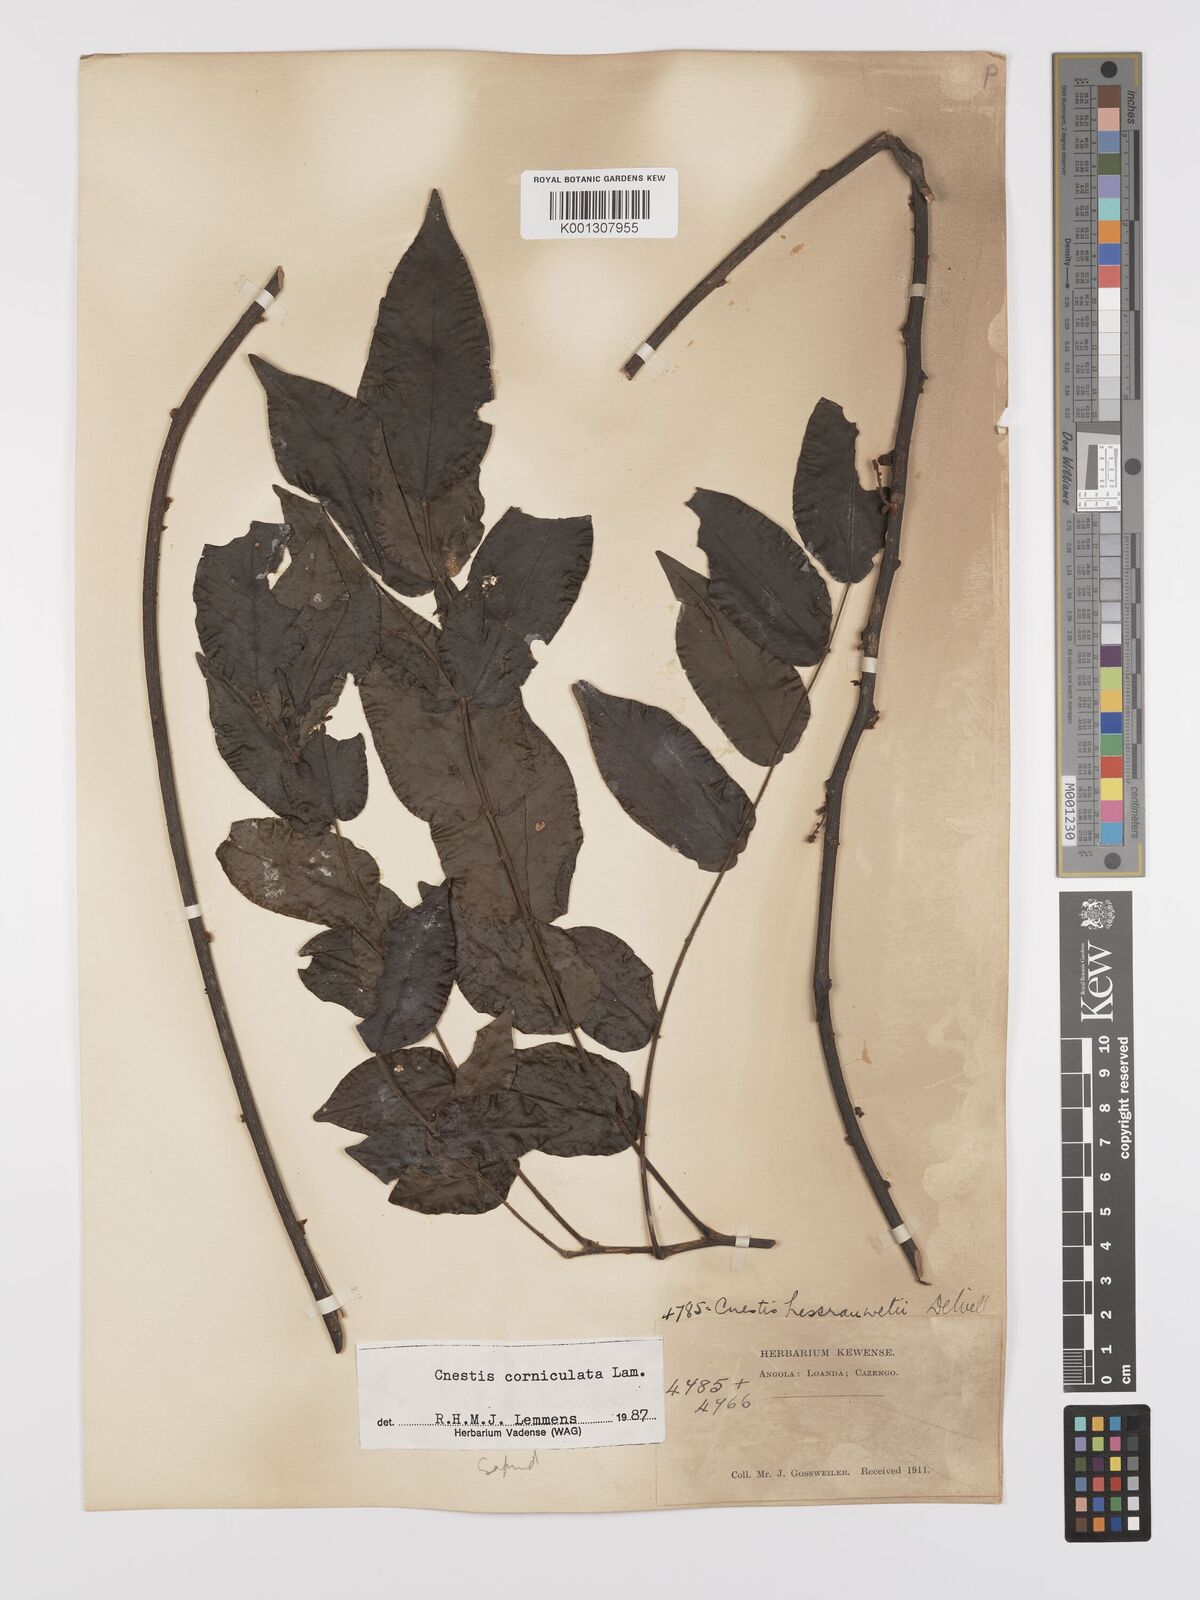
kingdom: Plantae
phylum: Tracheophyta
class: Magnoliopsida
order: Oxalidales
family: Connaraceae
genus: Cnestis
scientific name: Cnestis corniculata
